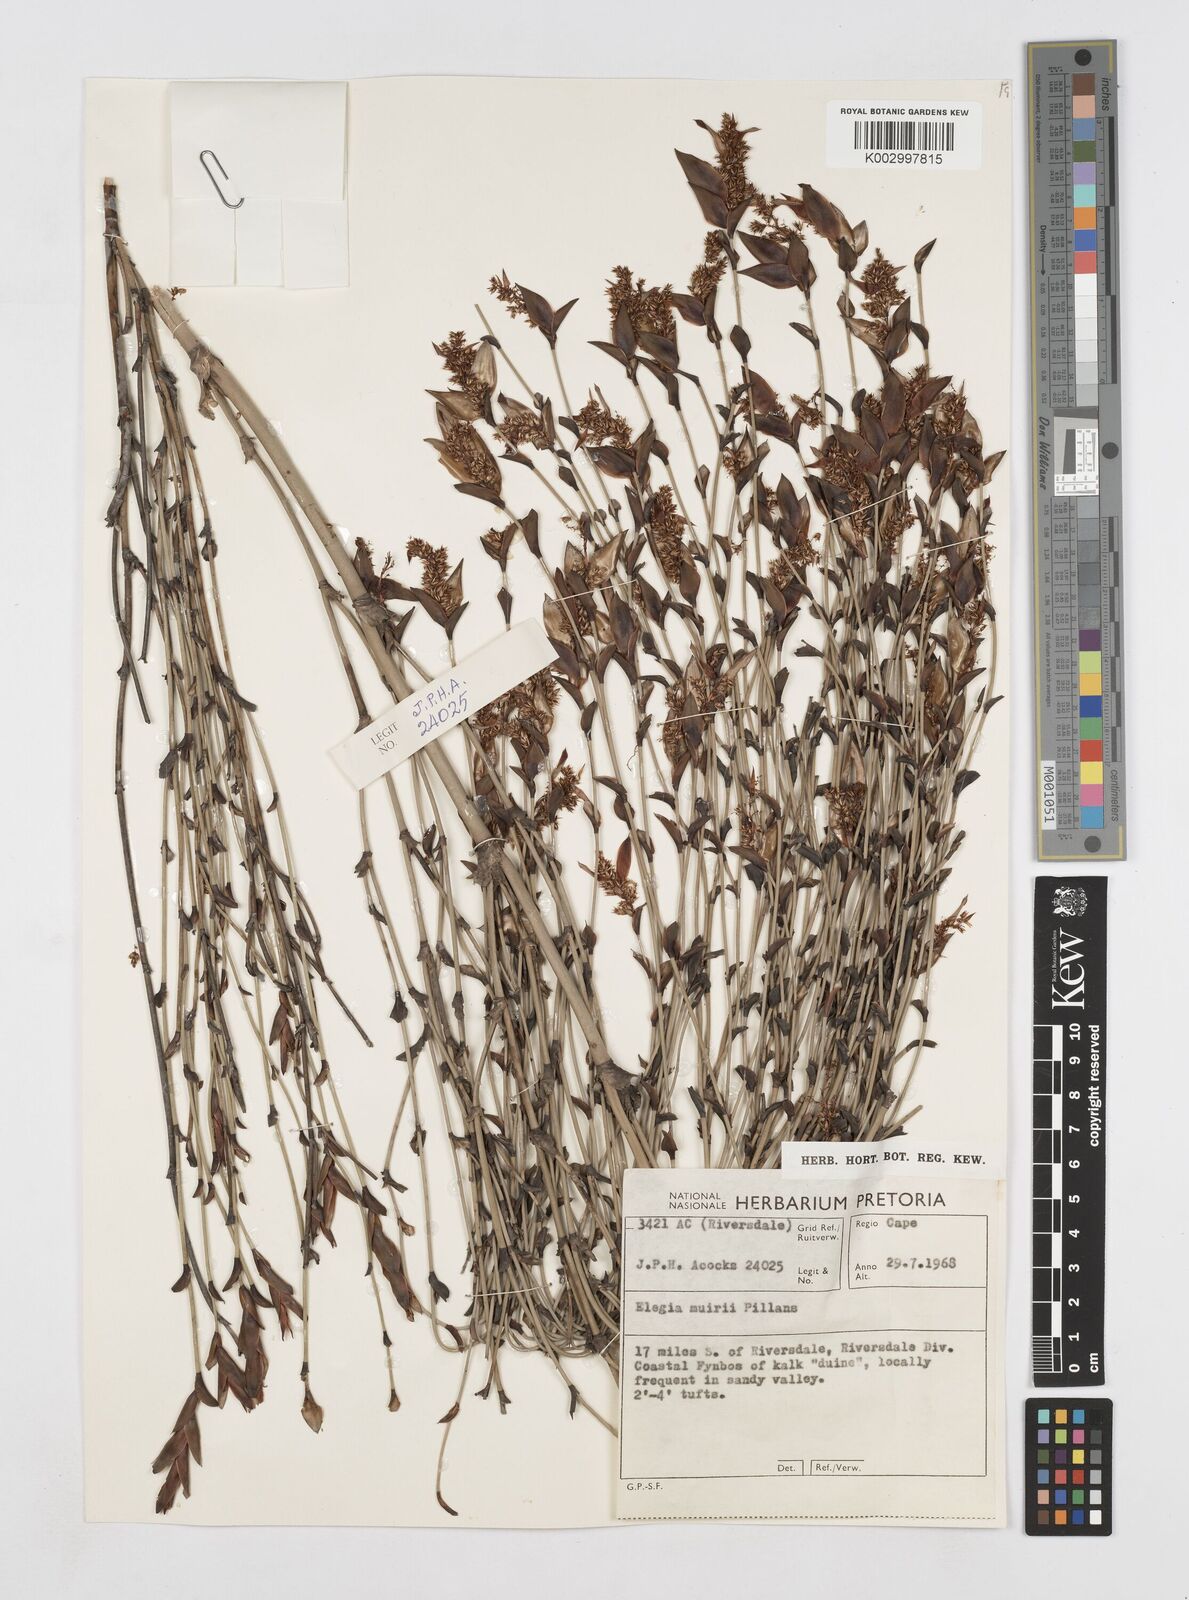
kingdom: Plantae
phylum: Tracheophyta
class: Liliopsida
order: Poales
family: Restionaceae
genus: Elegia
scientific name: Elegia muirii
